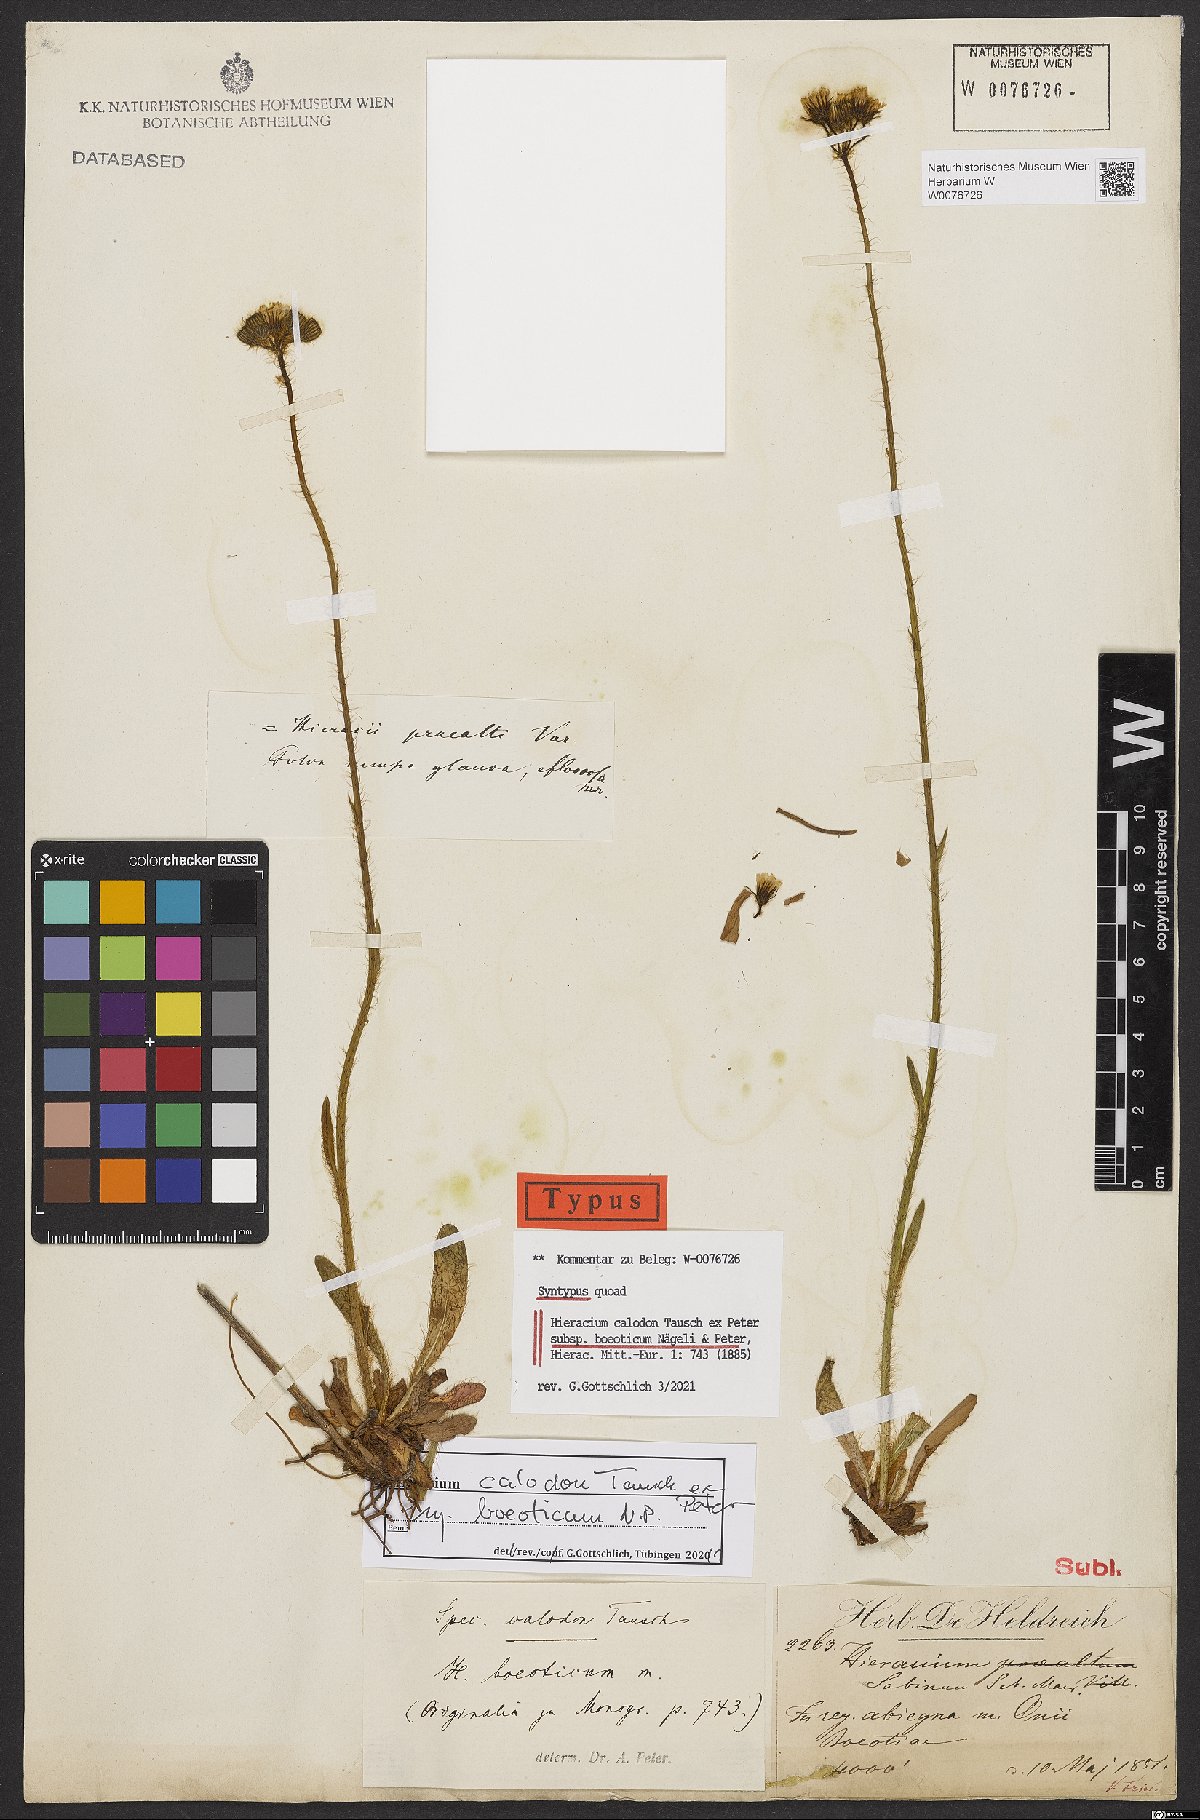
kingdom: Plantae
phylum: Tracheophyta
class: Magnoliopsida
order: Asterales
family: Asteraceae
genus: Pilosella
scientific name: Pilosella calodon
